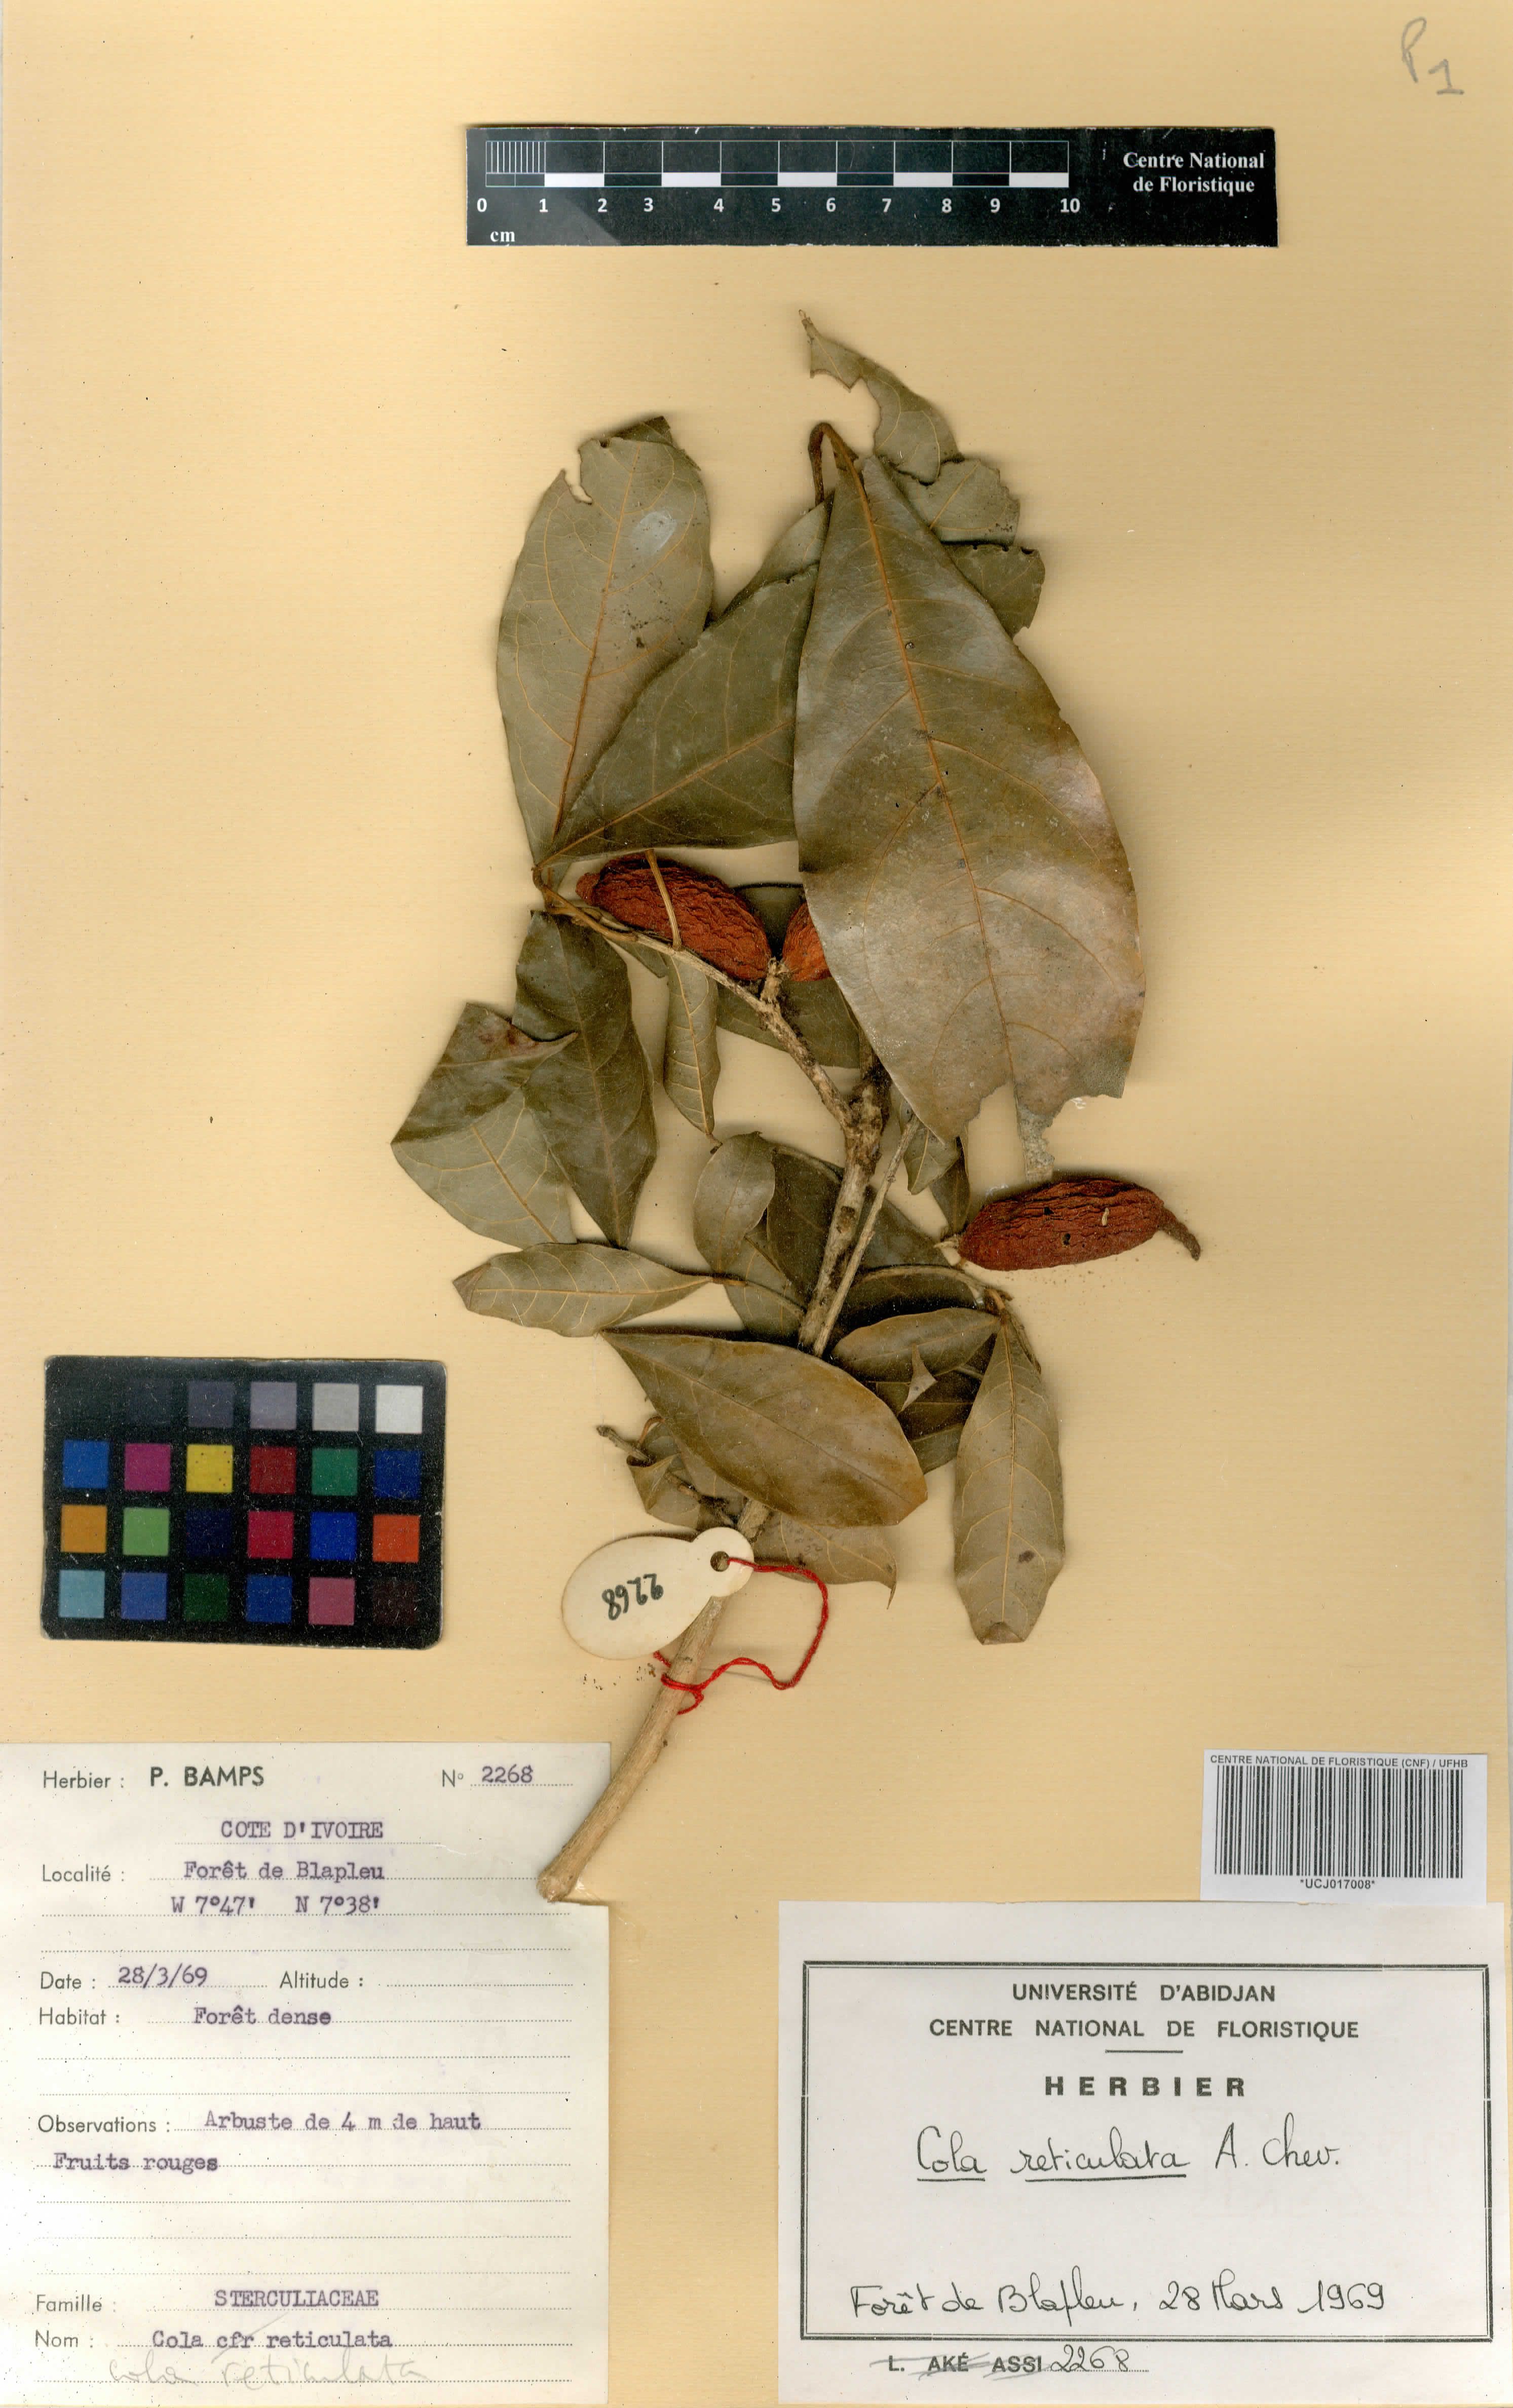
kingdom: Plantae
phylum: Tracheophyta
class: Magnoliopsida
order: Malvales
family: Malvaceae
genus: Cola
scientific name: Cola reticulata
